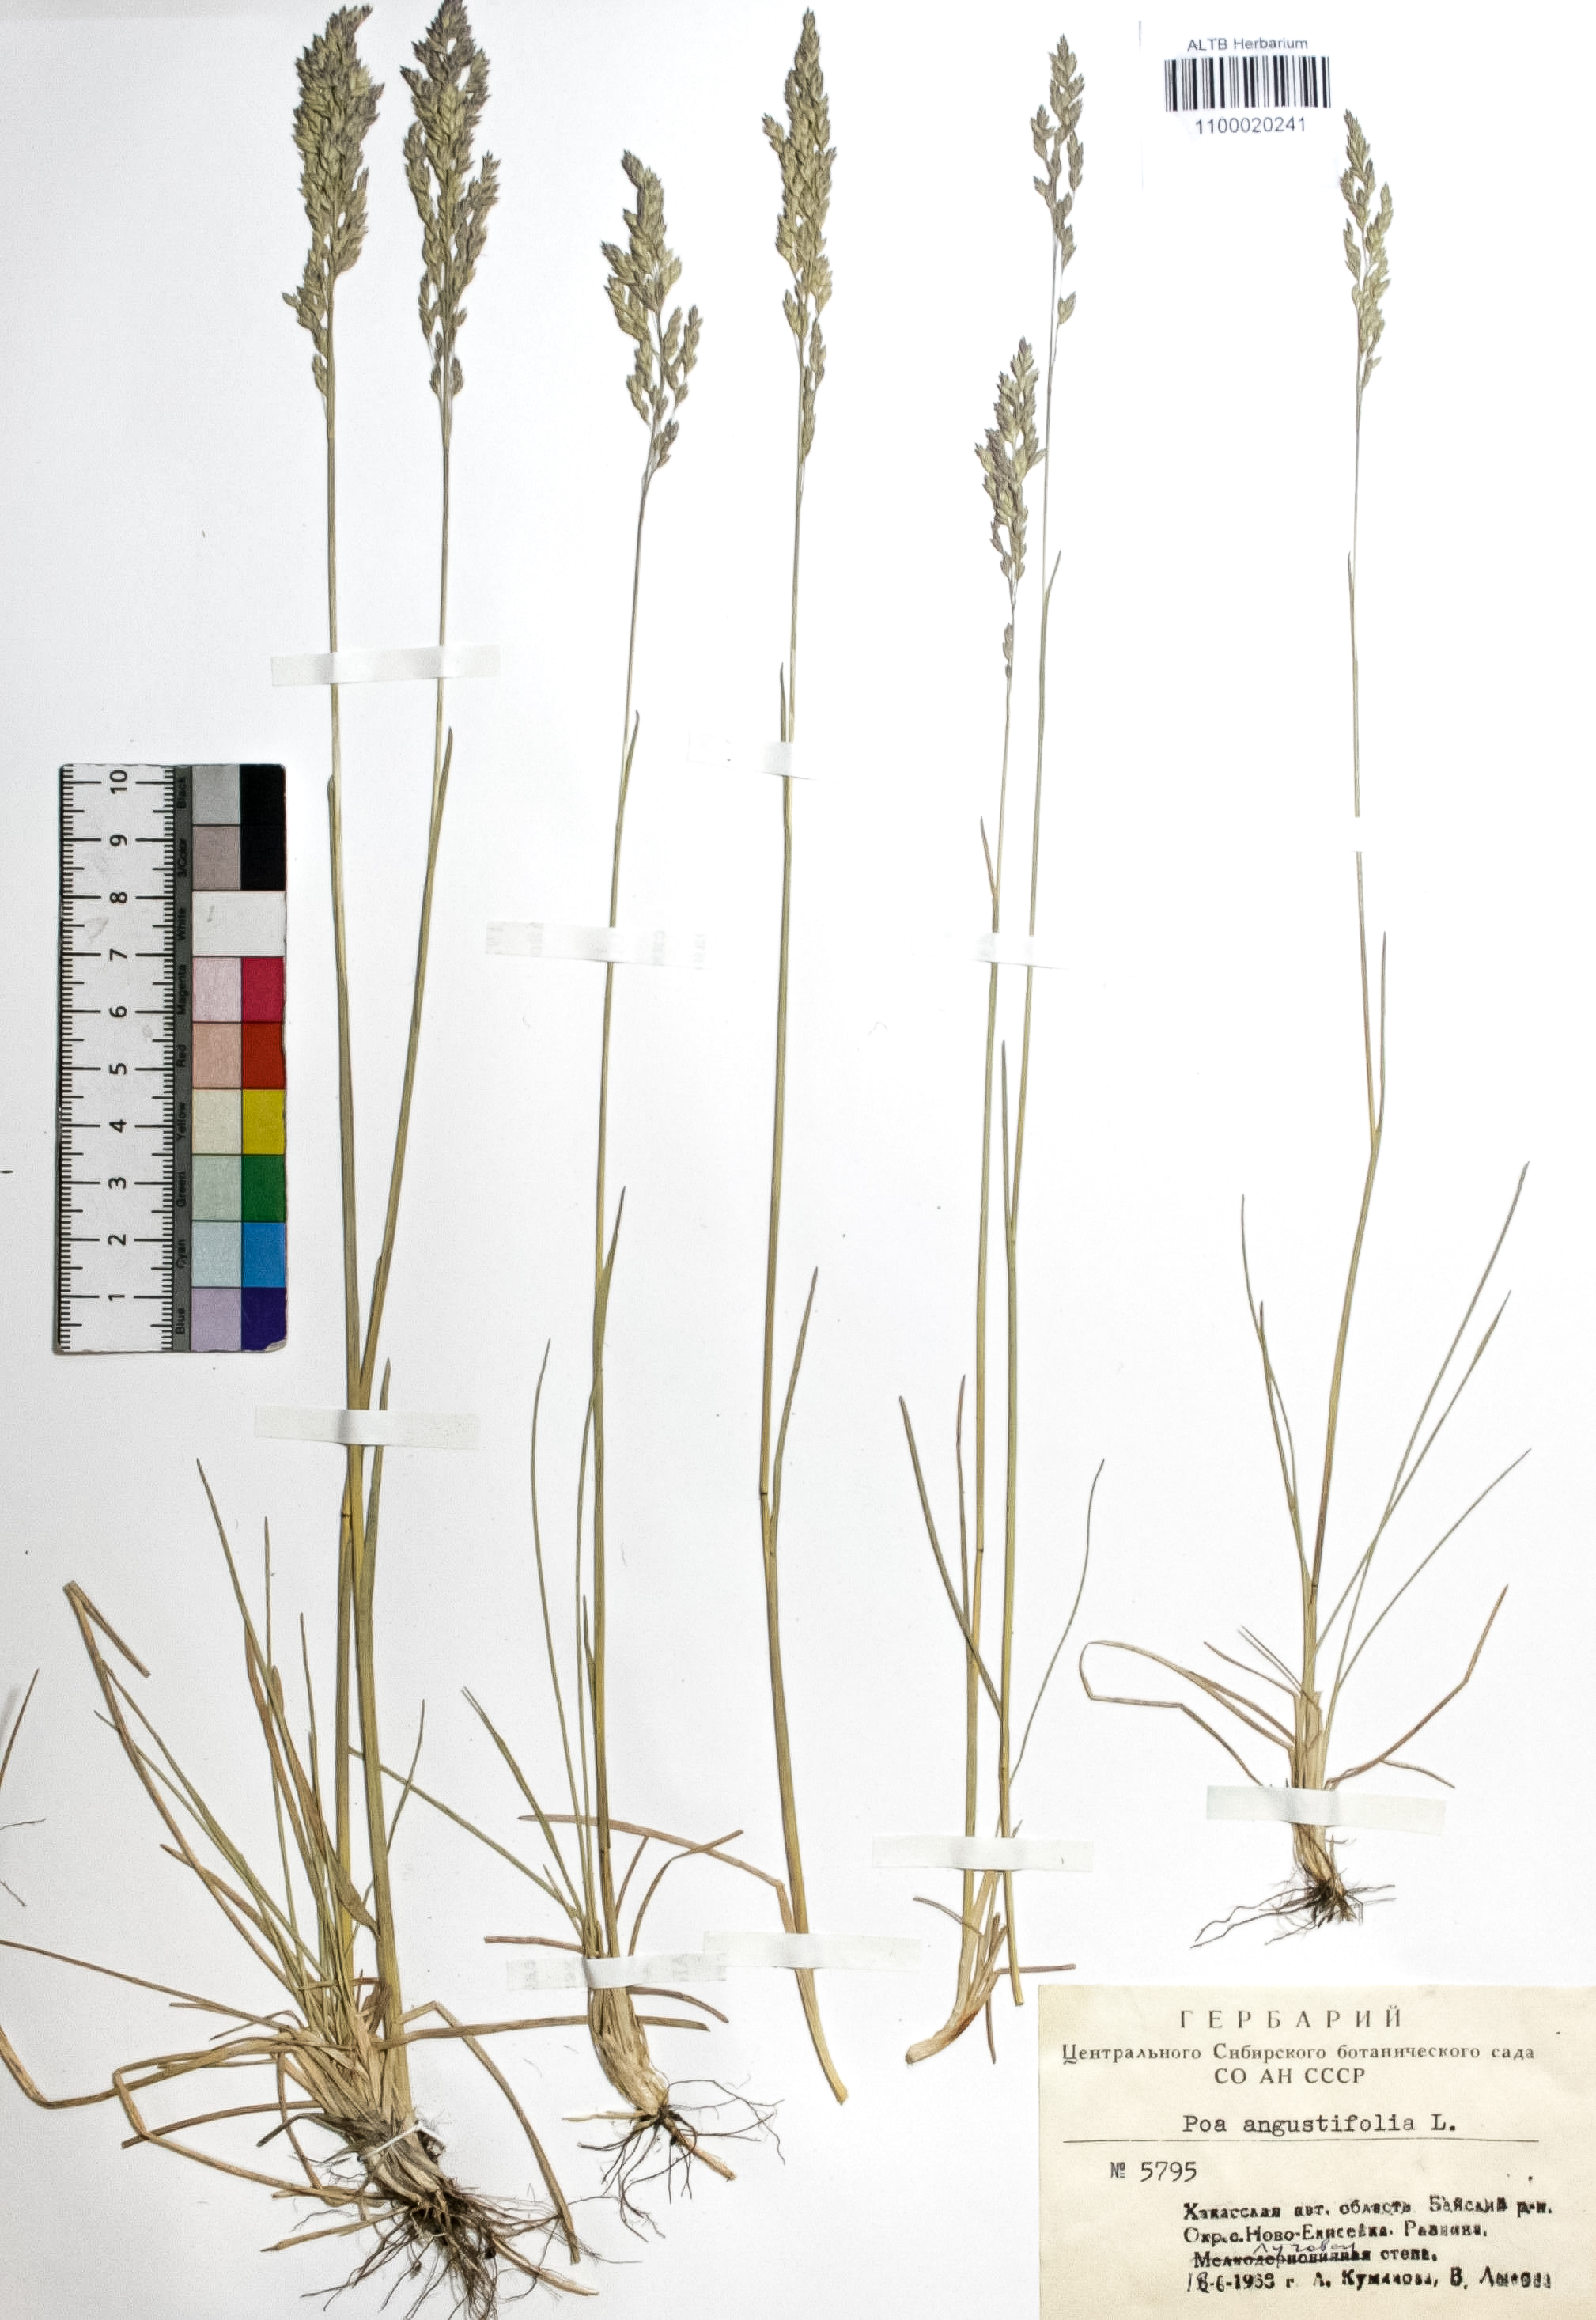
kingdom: Plantae
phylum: Tracheophyta
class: Liliopsida
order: Poales
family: Poaceae
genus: Poa
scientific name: Poa angustifolia
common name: Narrow-leaved meadow-grass
